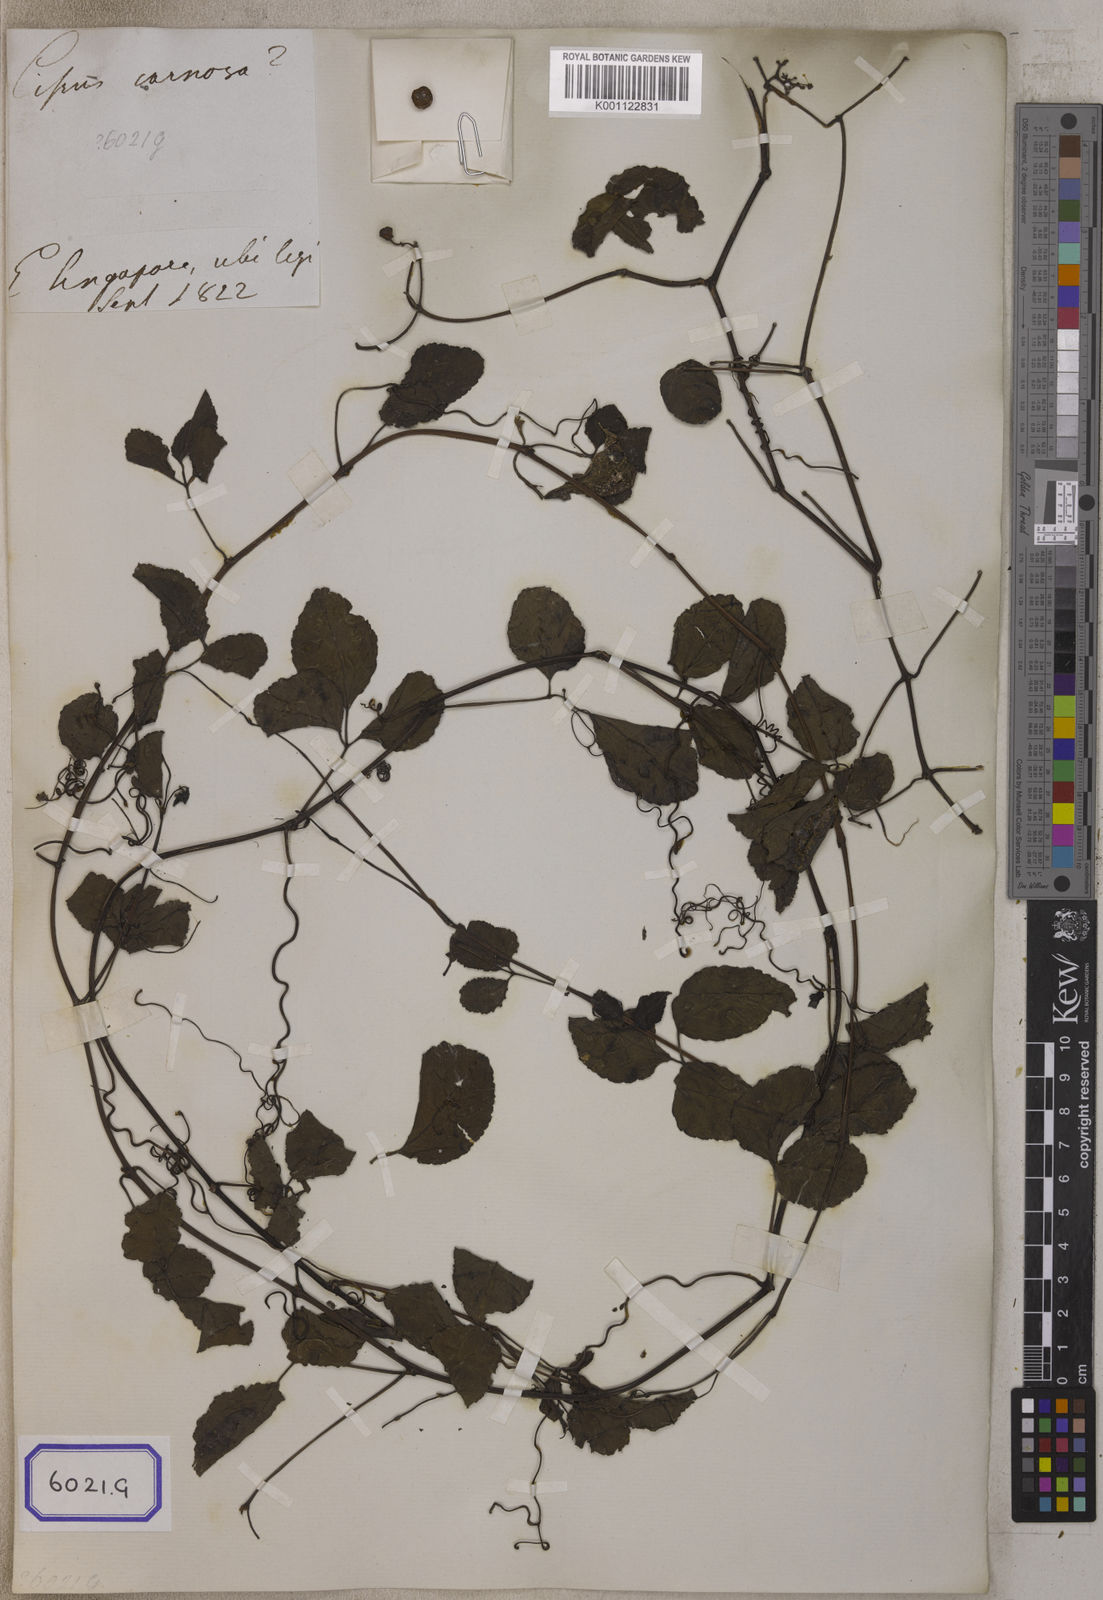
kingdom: Plantae
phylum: Tracheophyta
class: Magnoliopsida
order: Vitales
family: Vitaceae
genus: Causonis
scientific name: Causonis trifolia
